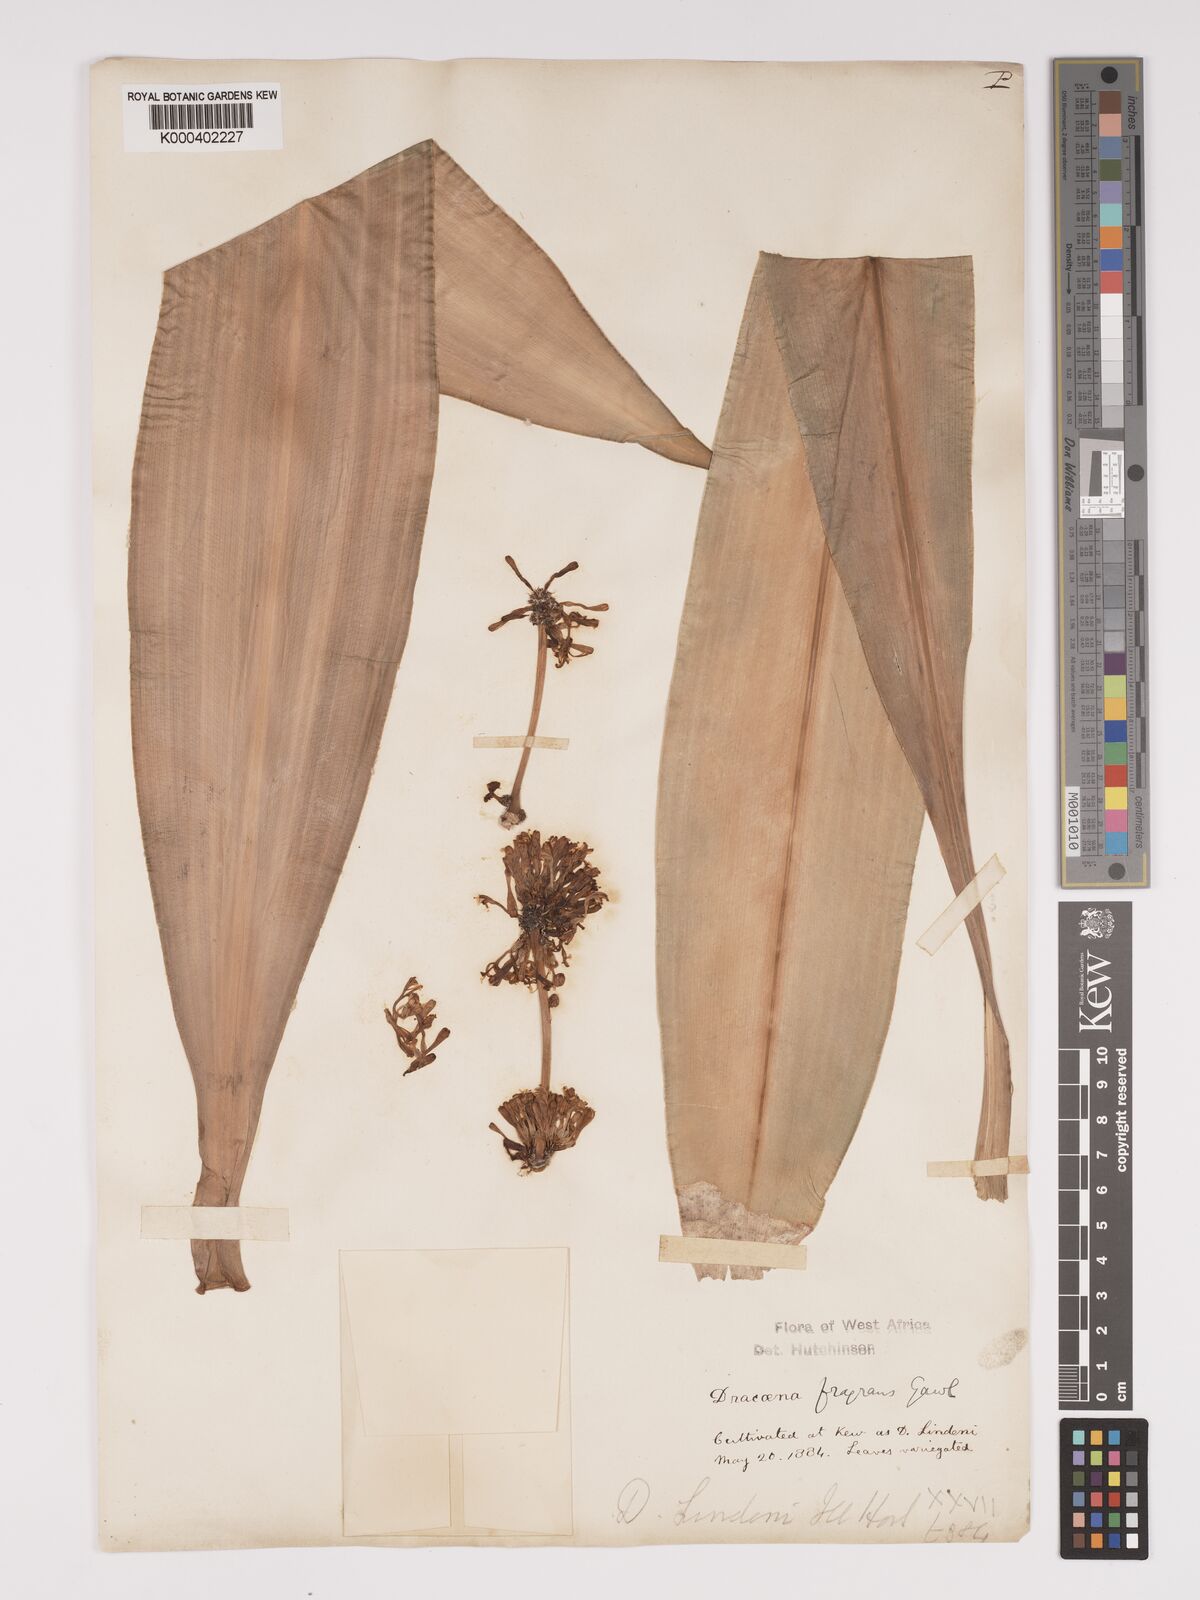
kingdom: Plantae
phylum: Tracheophyta
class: Liliopsida
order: Asparagales
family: Asparagaceae
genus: Dracaena
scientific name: Dracaena fragrans
